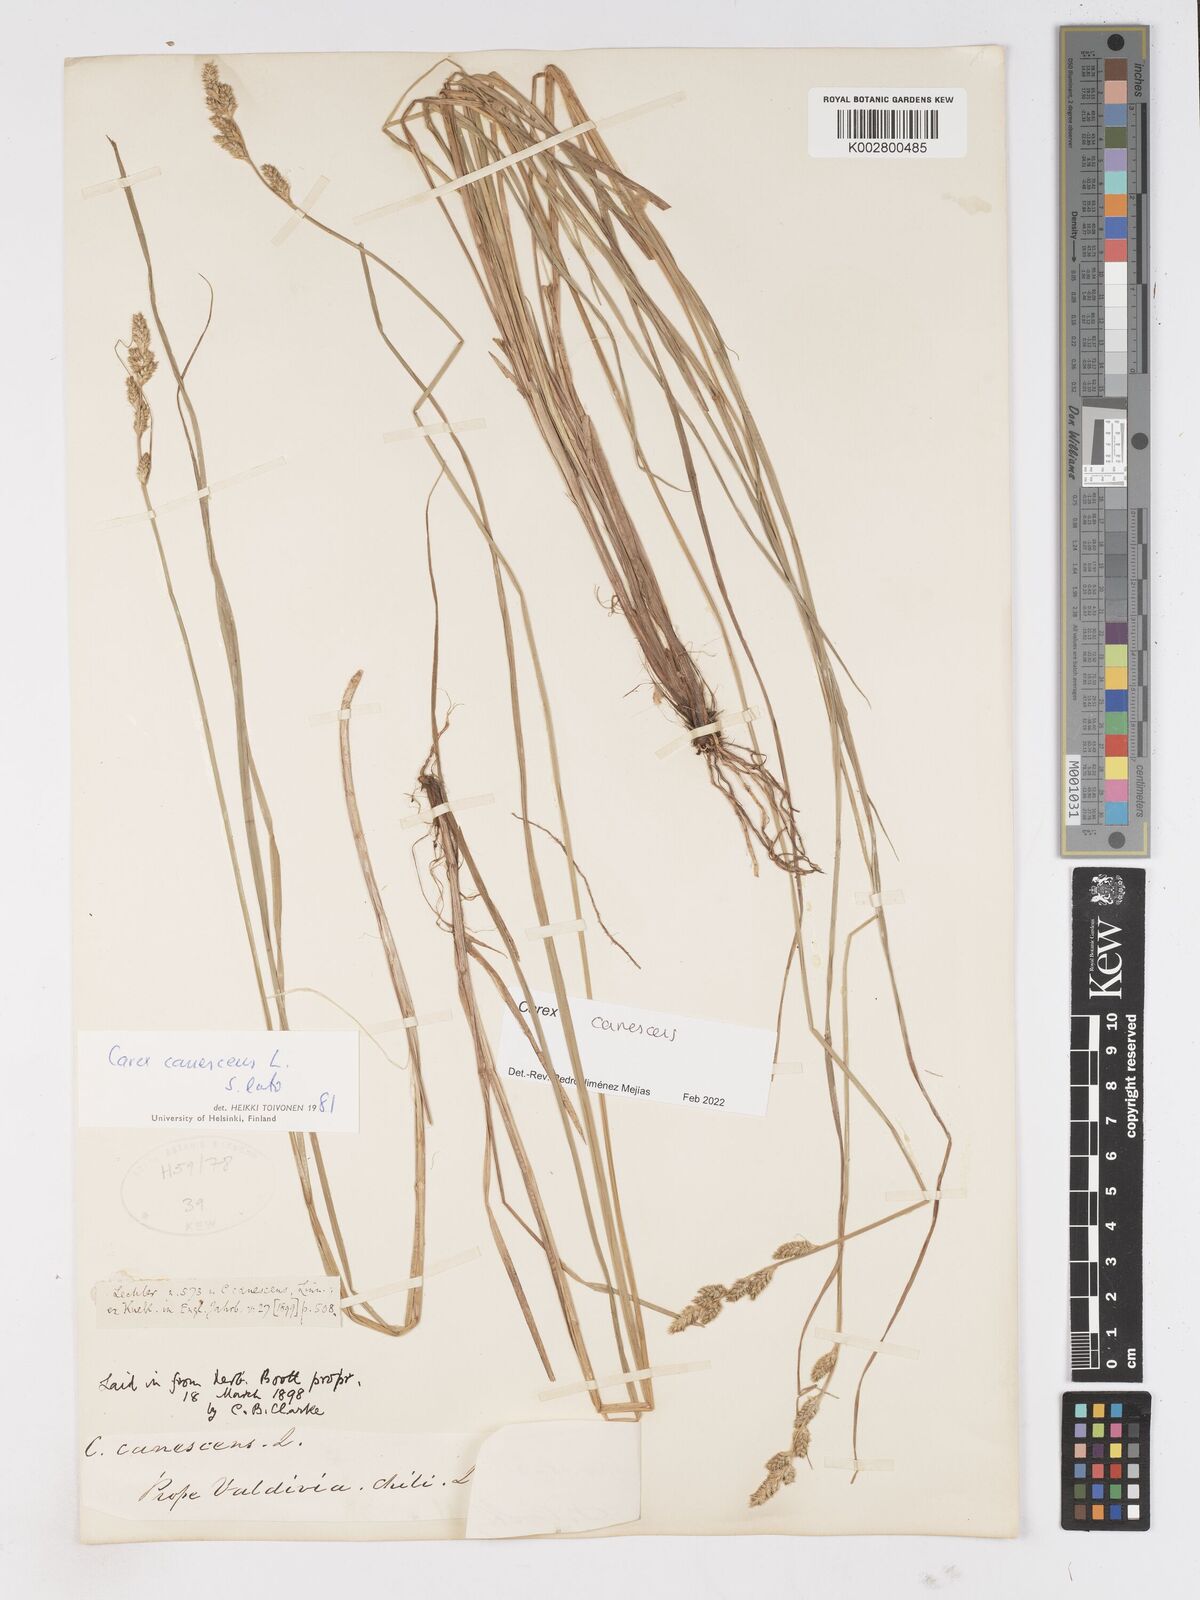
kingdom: Plantae
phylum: Tracheophyta
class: Liliopsida
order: Poales
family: Cyperaceae
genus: Carex
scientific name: Carex curta
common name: White sedge
